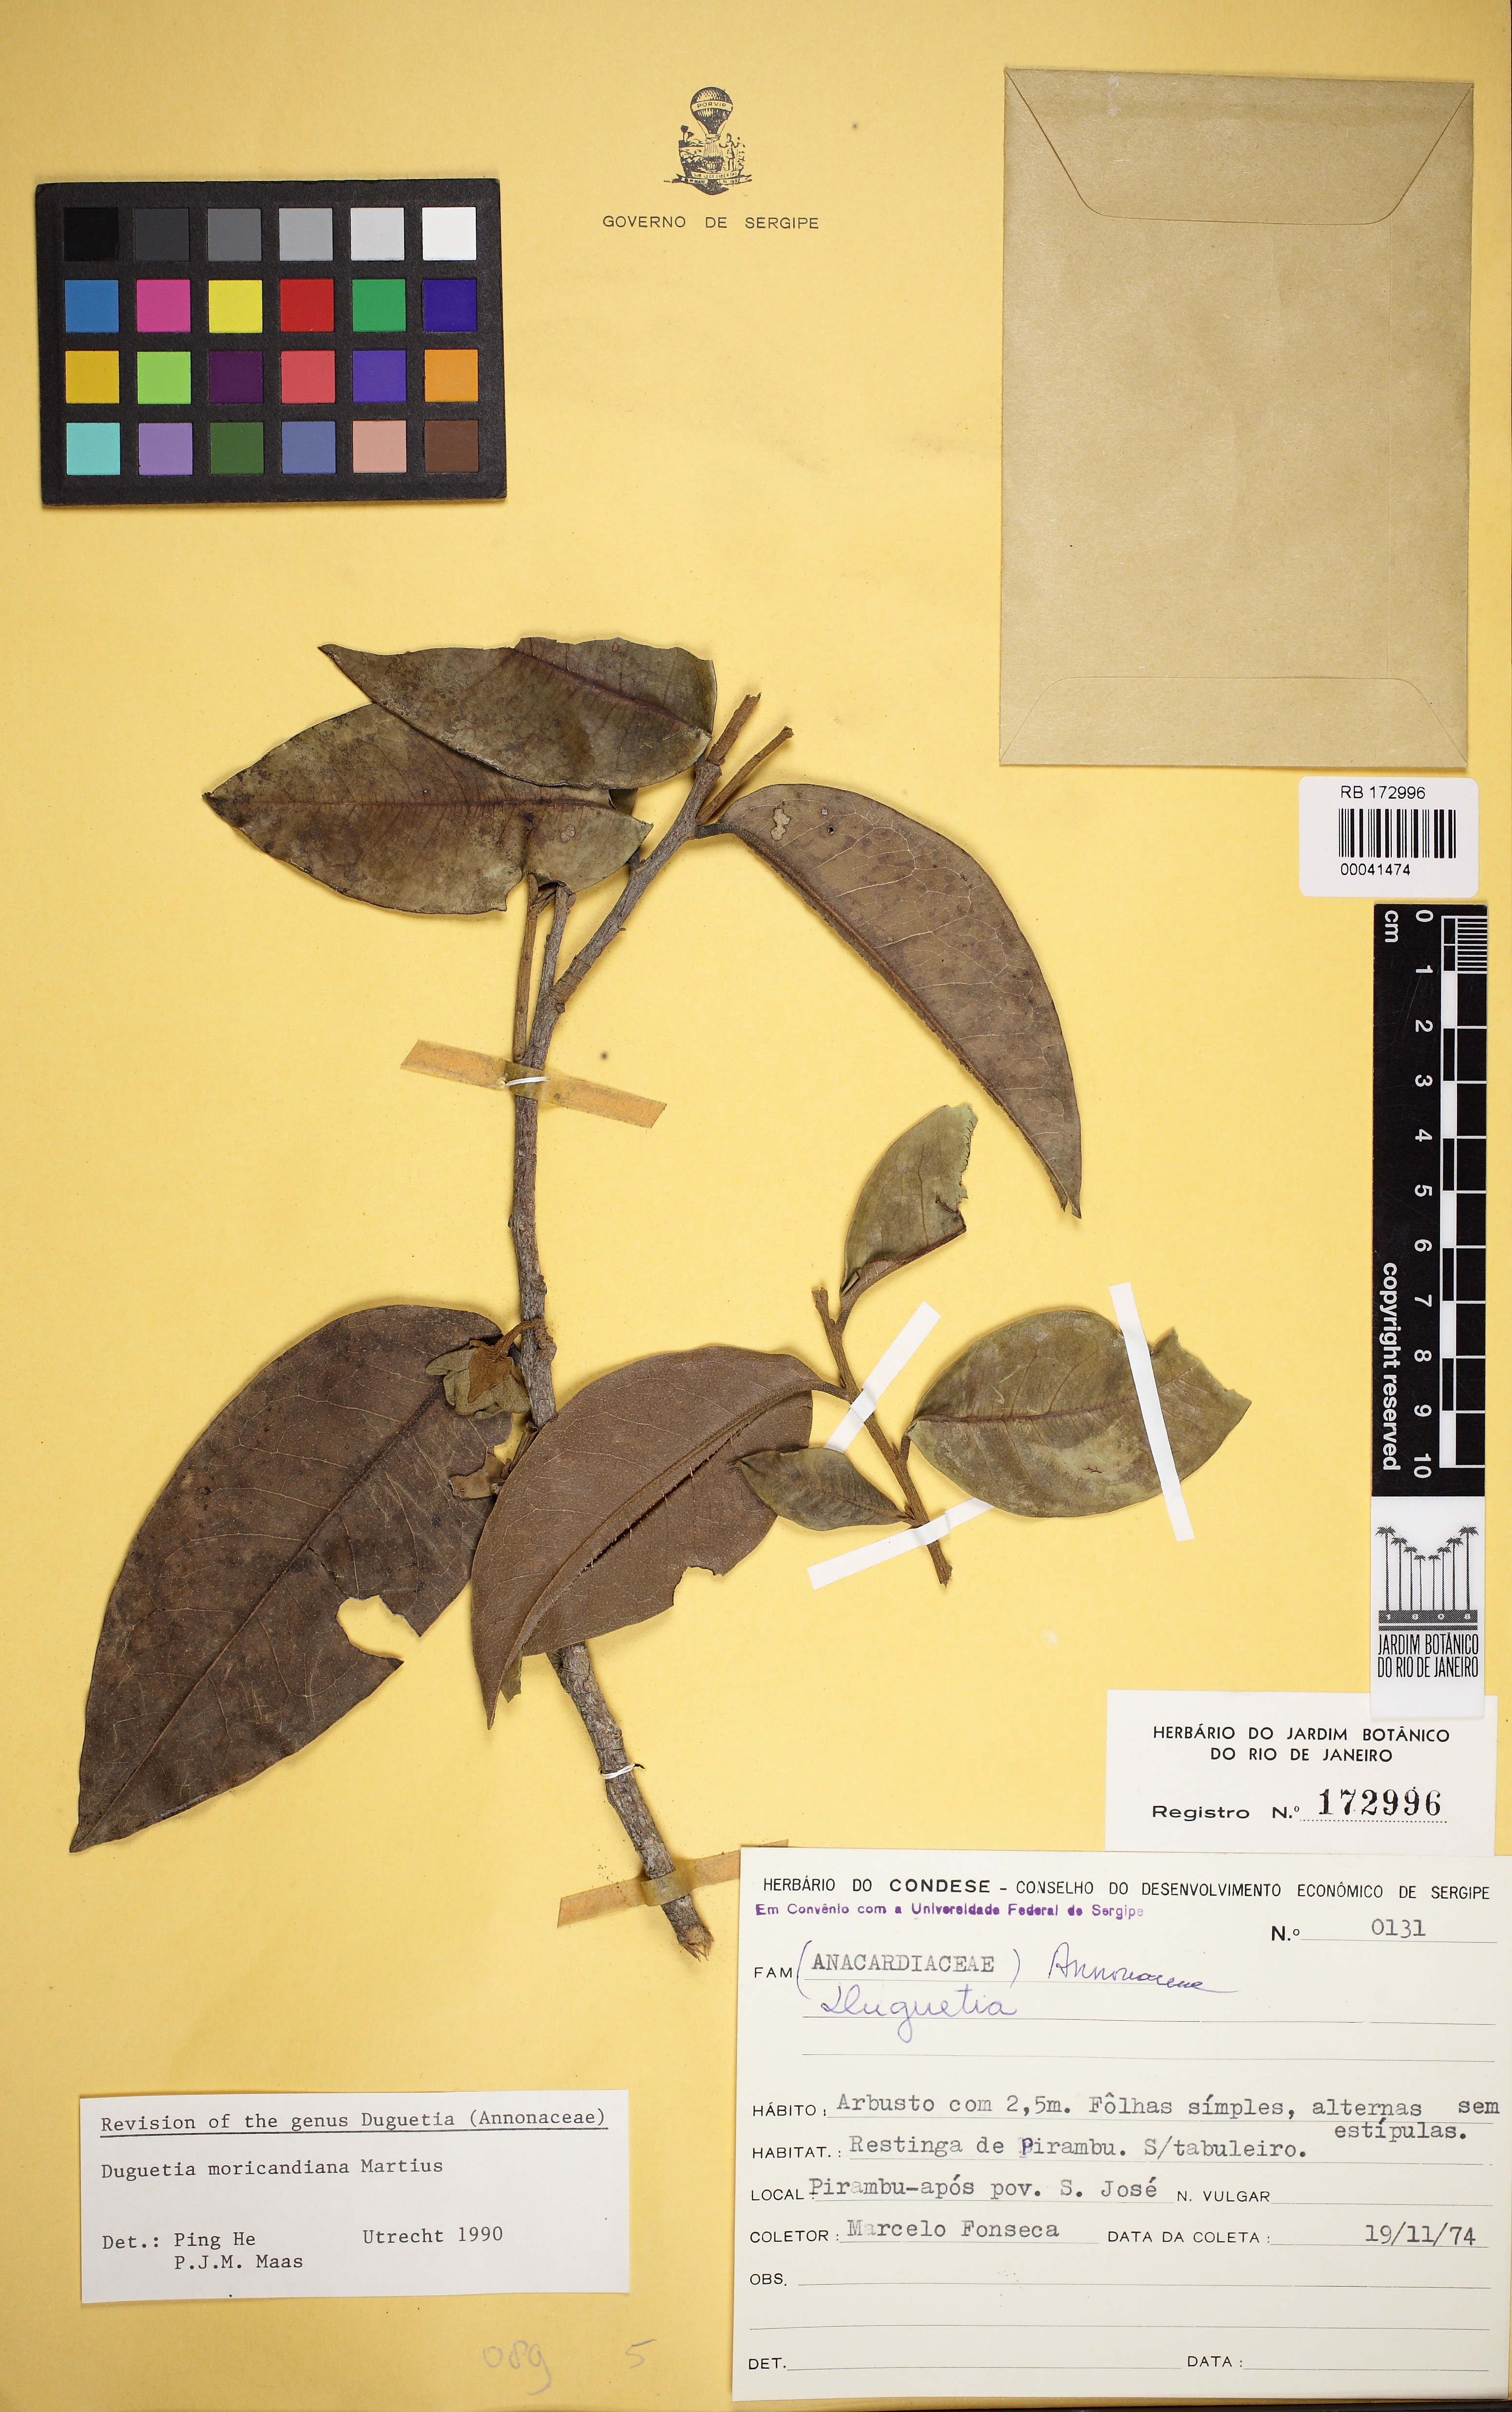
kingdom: Plantae
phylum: Tracheophyta
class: Magnoliopsida
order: Magnoliales
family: Annonaceae
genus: Duguetia
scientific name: Duguetia moricandiana
